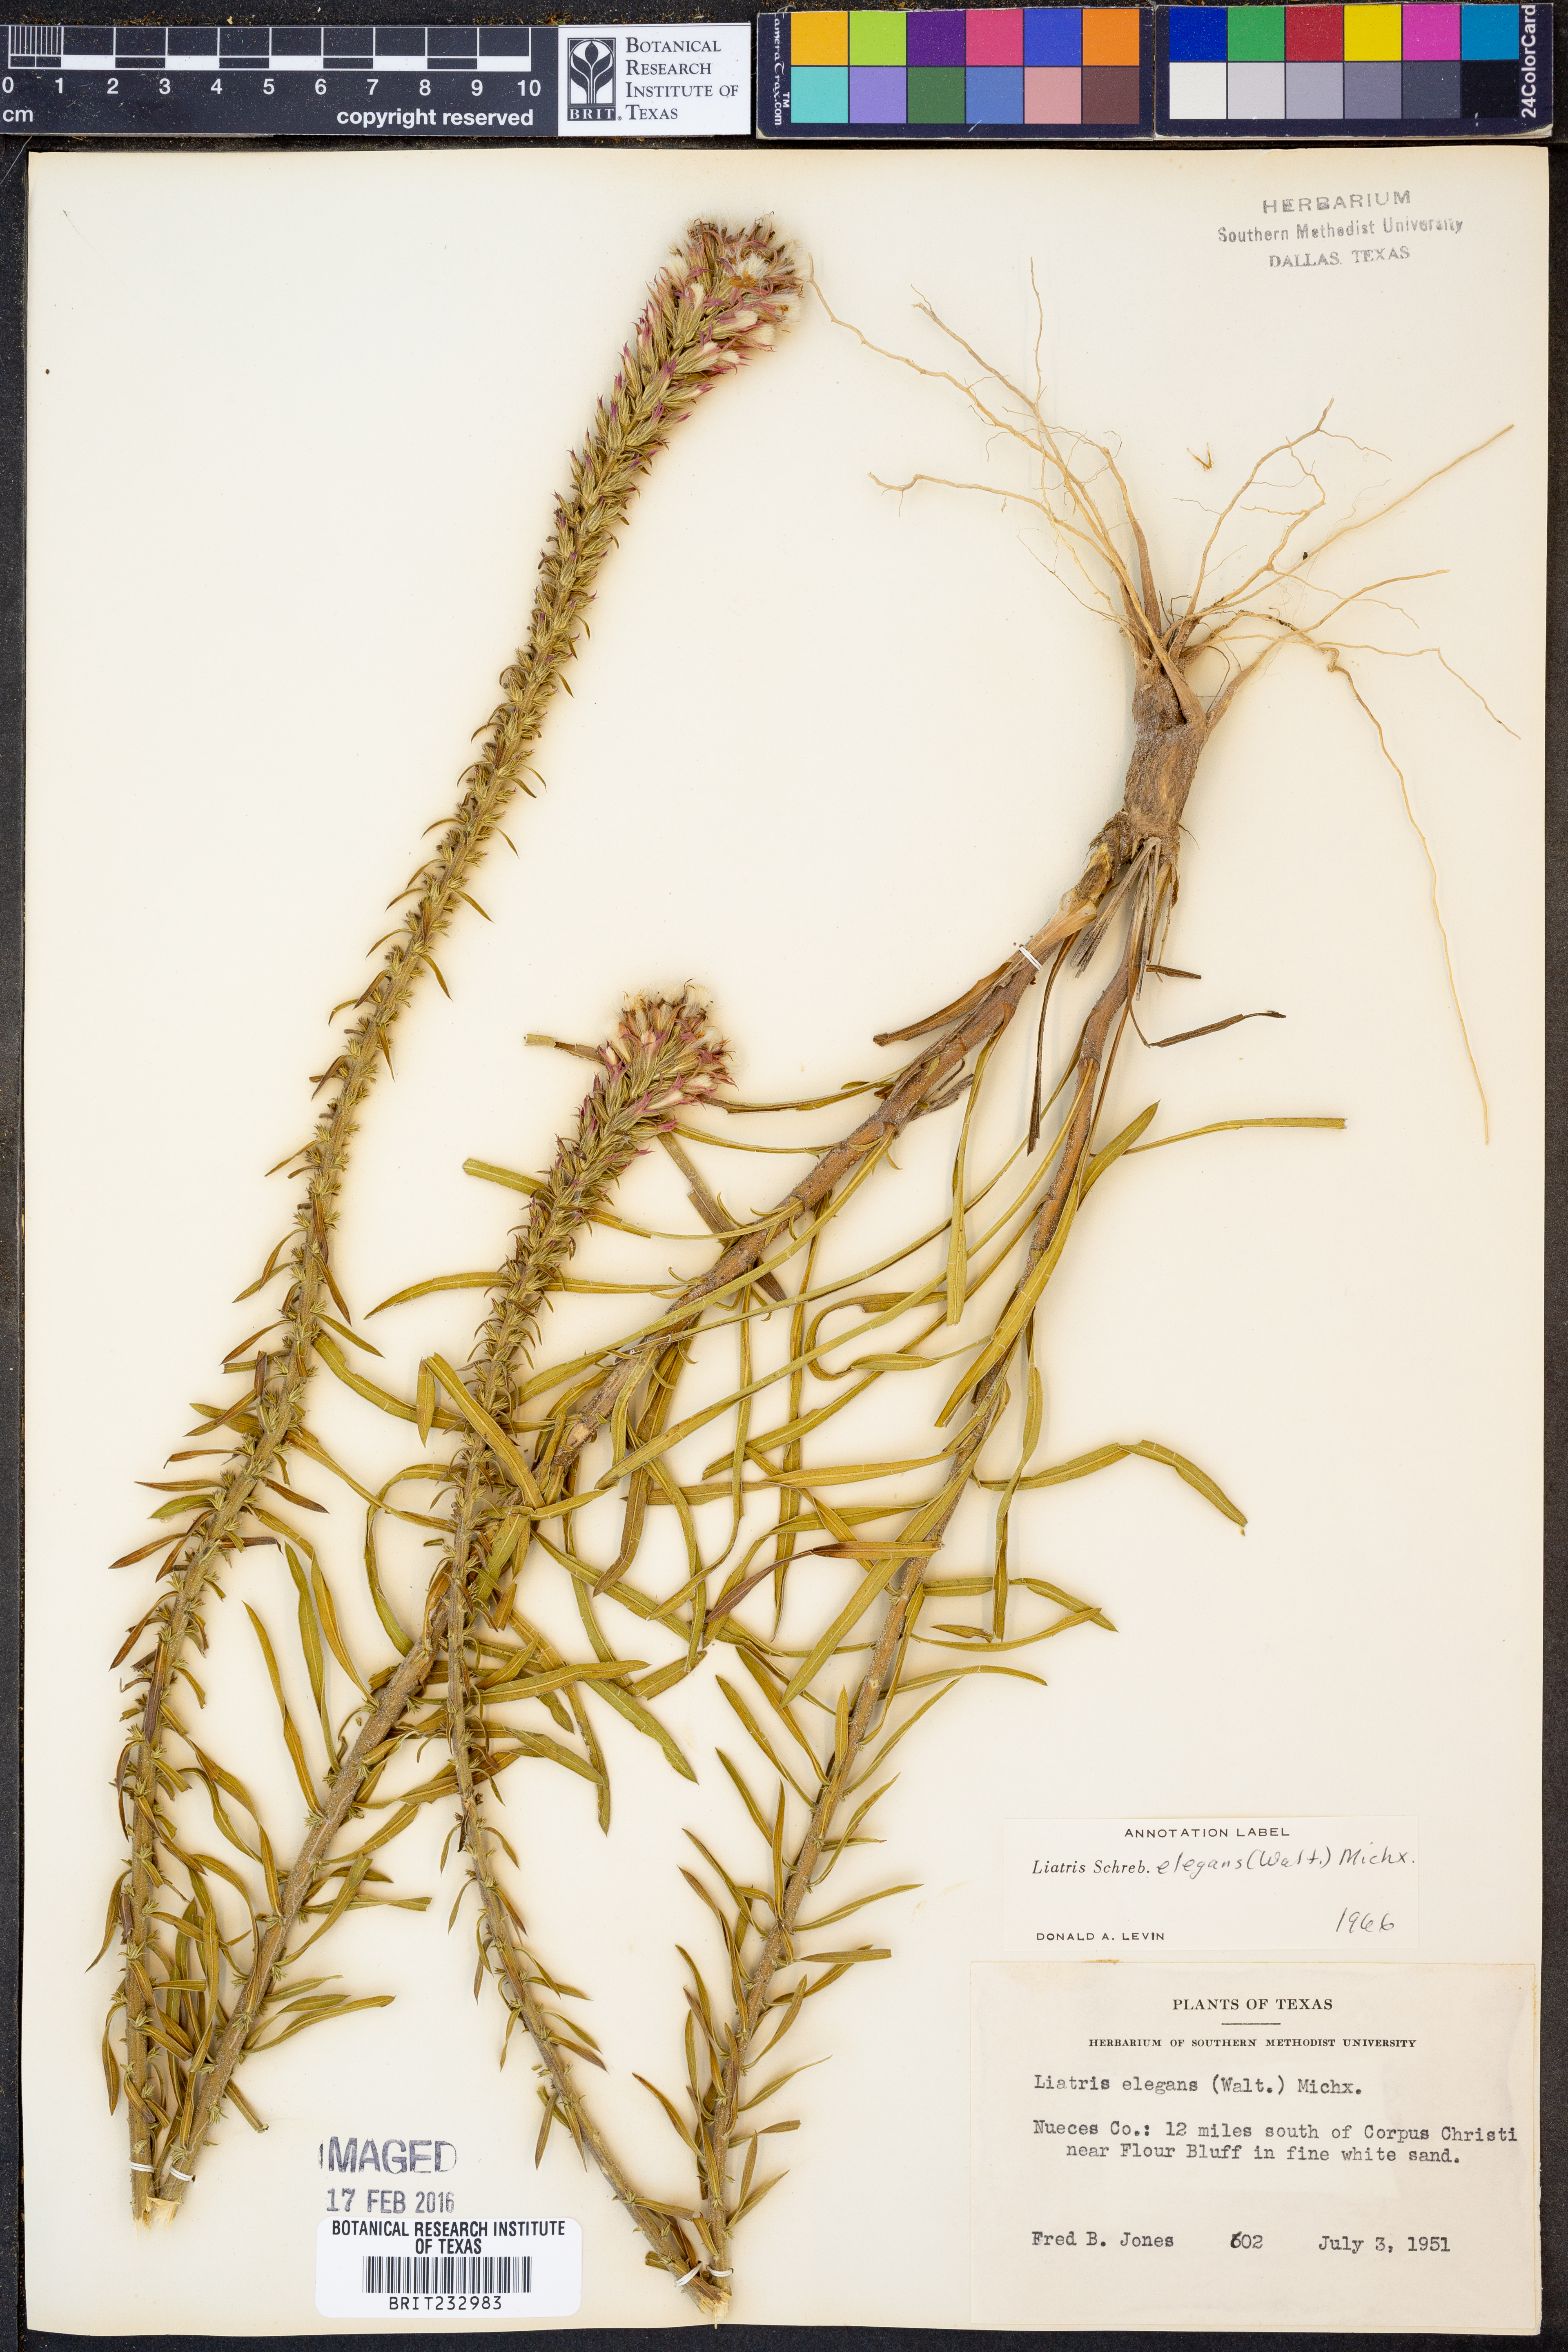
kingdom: Plantae
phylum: Tracheophyta
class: Magnoliopsida
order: Asterales
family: Asteraceae
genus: Liatris
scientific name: Liatris elegans
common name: Pinkscale gayfeather
